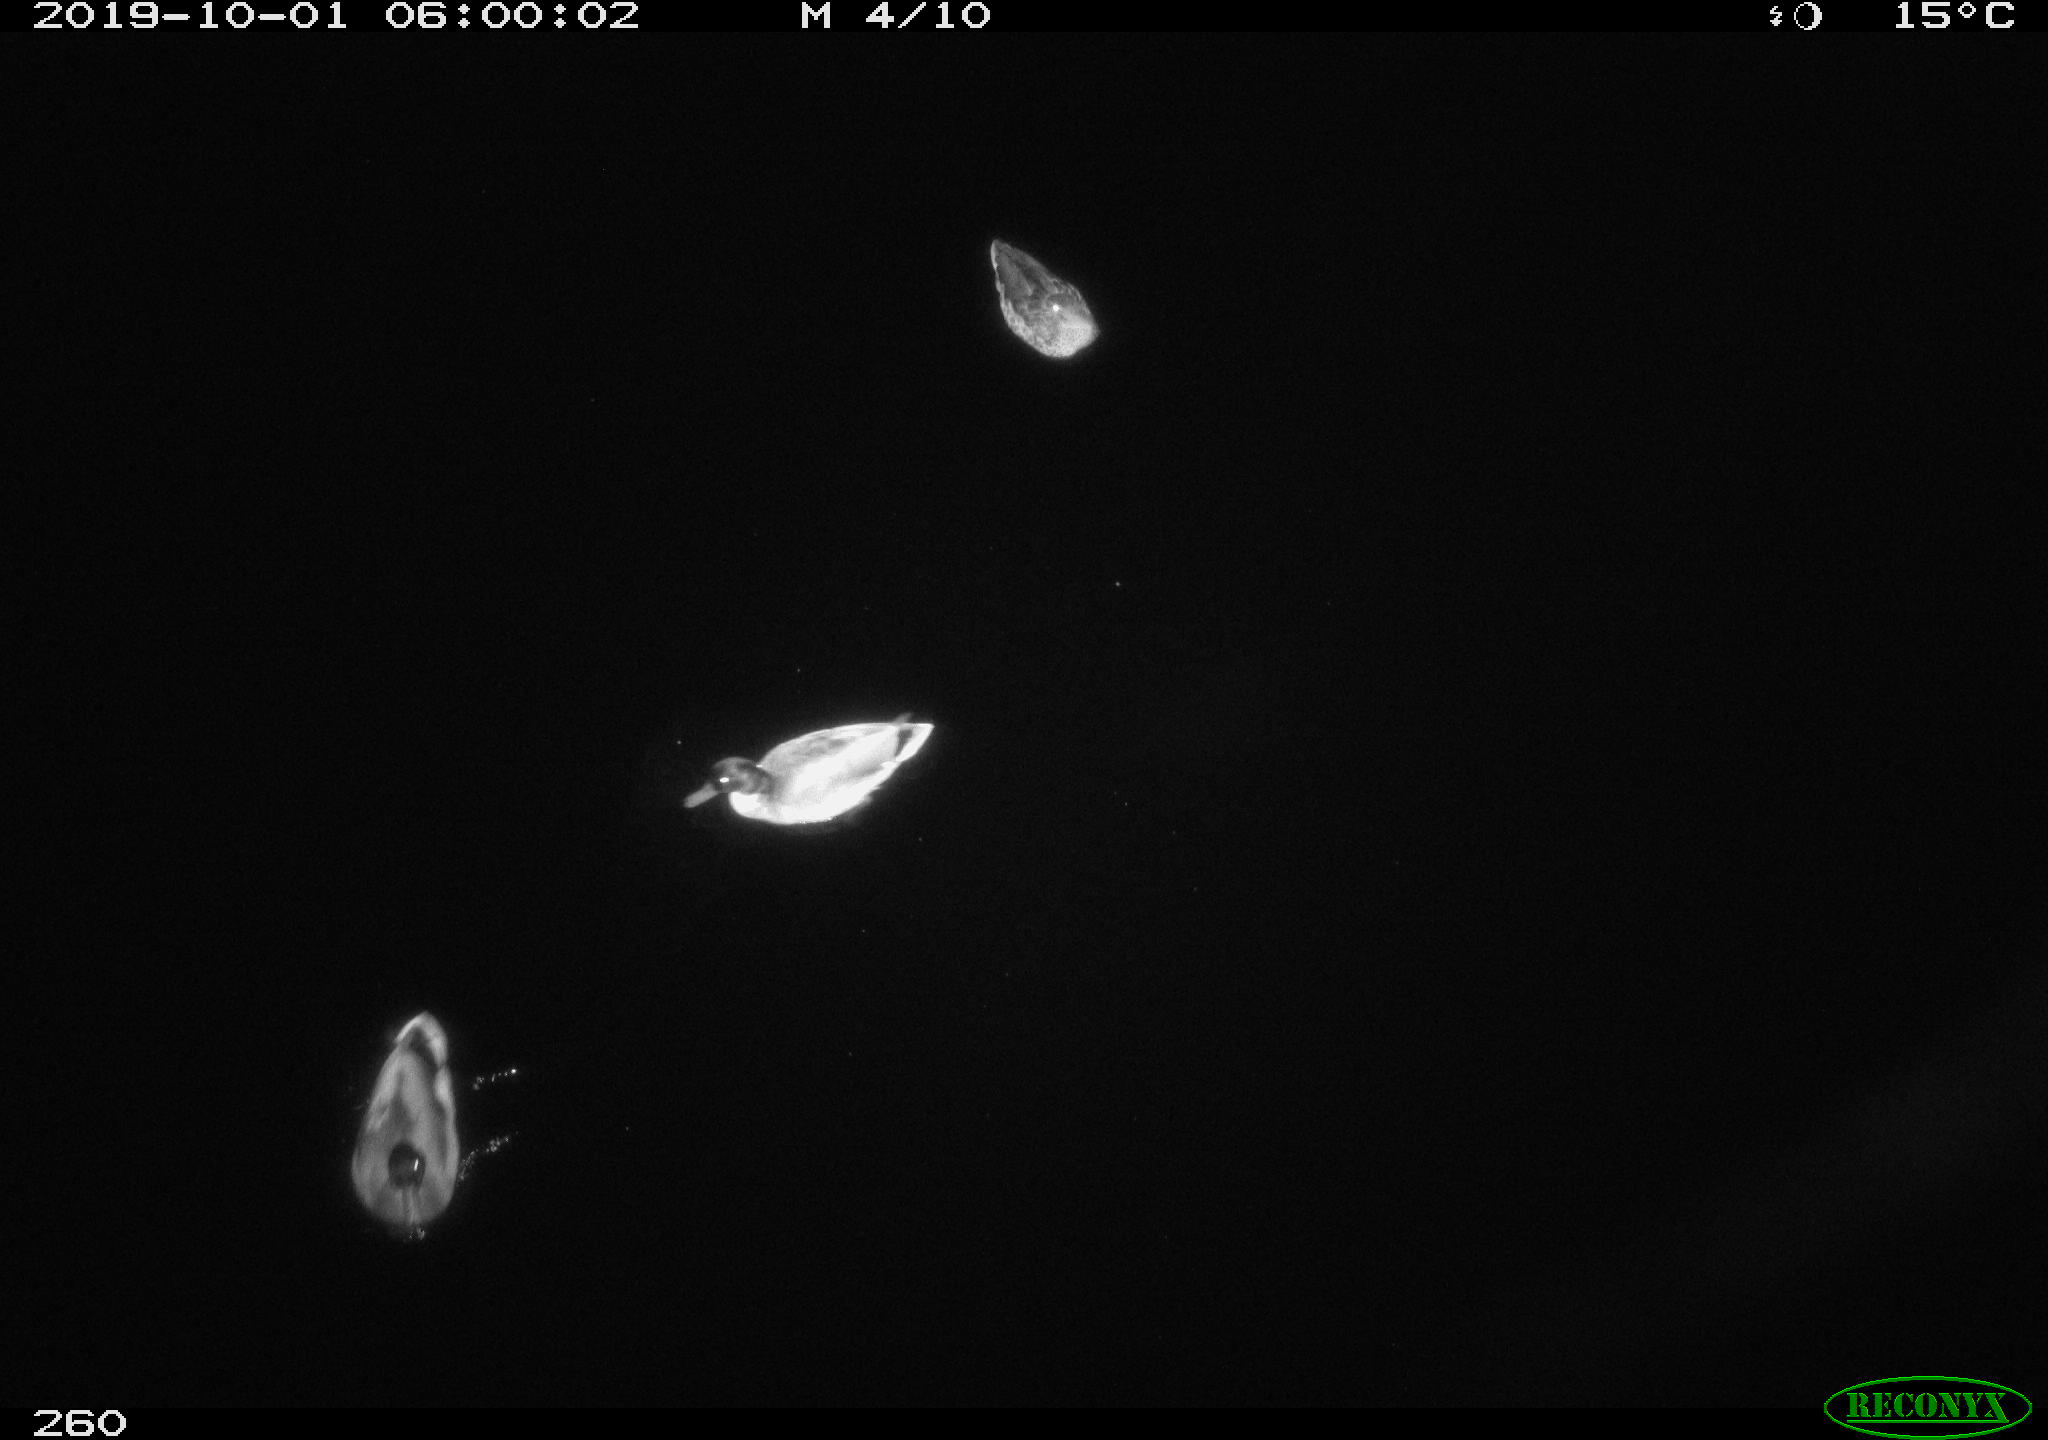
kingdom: Animalia
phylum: Chordata
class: Aves
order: Anseriformes
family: Anatidae
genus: Anas
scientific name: Anas platyrhynchos
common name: Mallard
